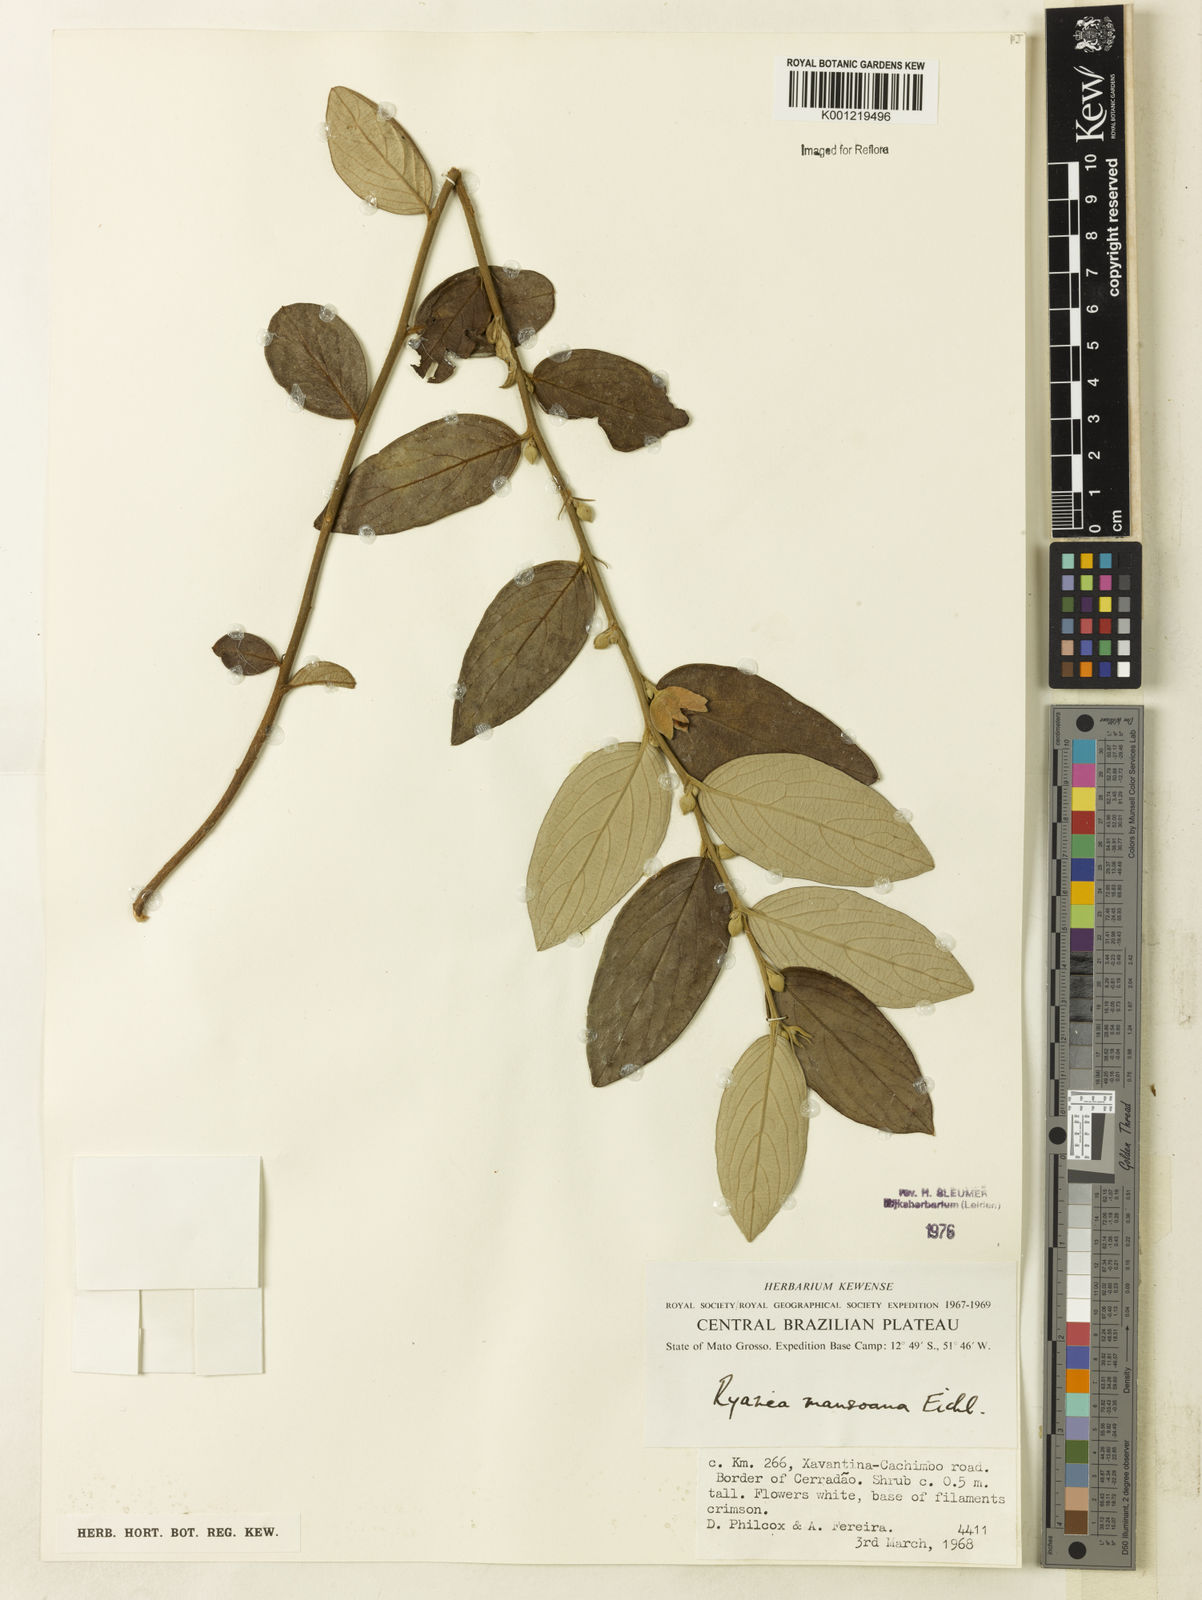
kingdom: Plantae
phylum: Tracheophyta
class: Magnoliopsida
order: Malpighiales
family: Salicaceae
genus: Ryania
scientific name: Ryania mansoana
